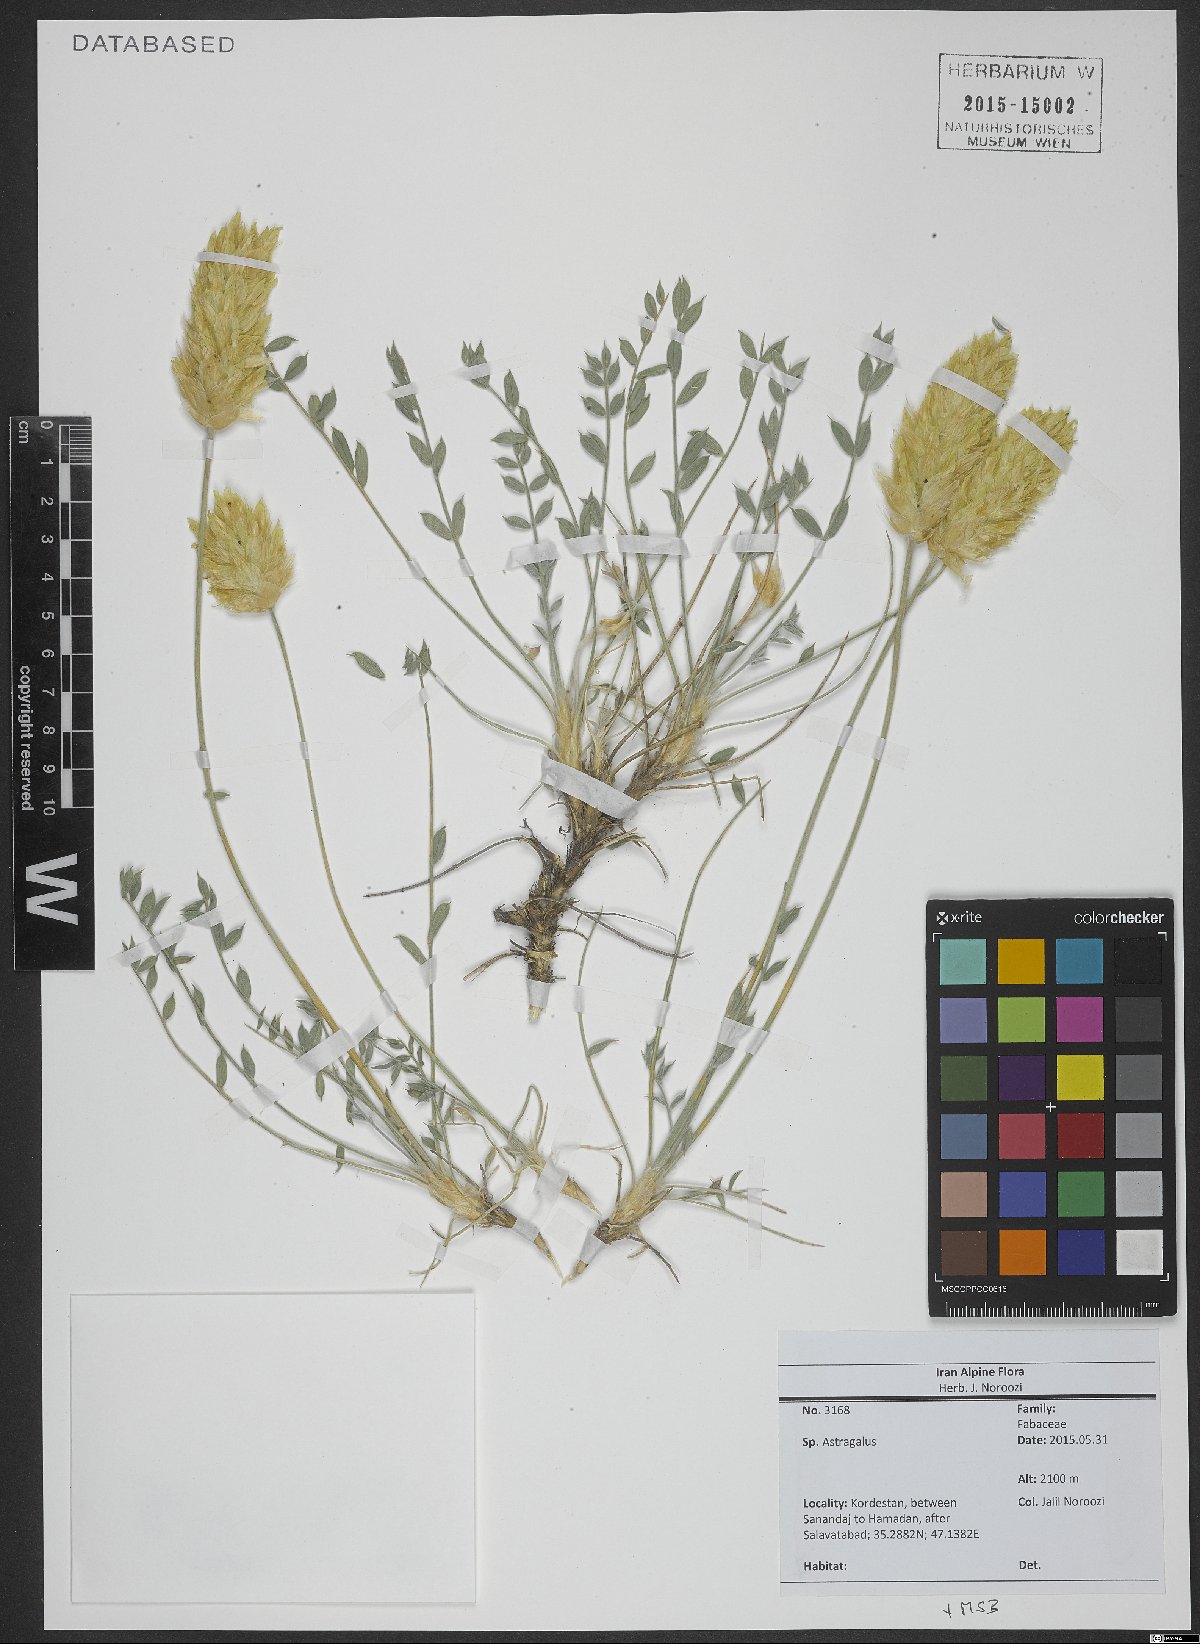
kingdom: Plantae
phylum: Tracheophyta
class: Magnoliopsida
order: Fabales
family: Fabaceae
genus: Astragalus
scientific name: Astragalus
